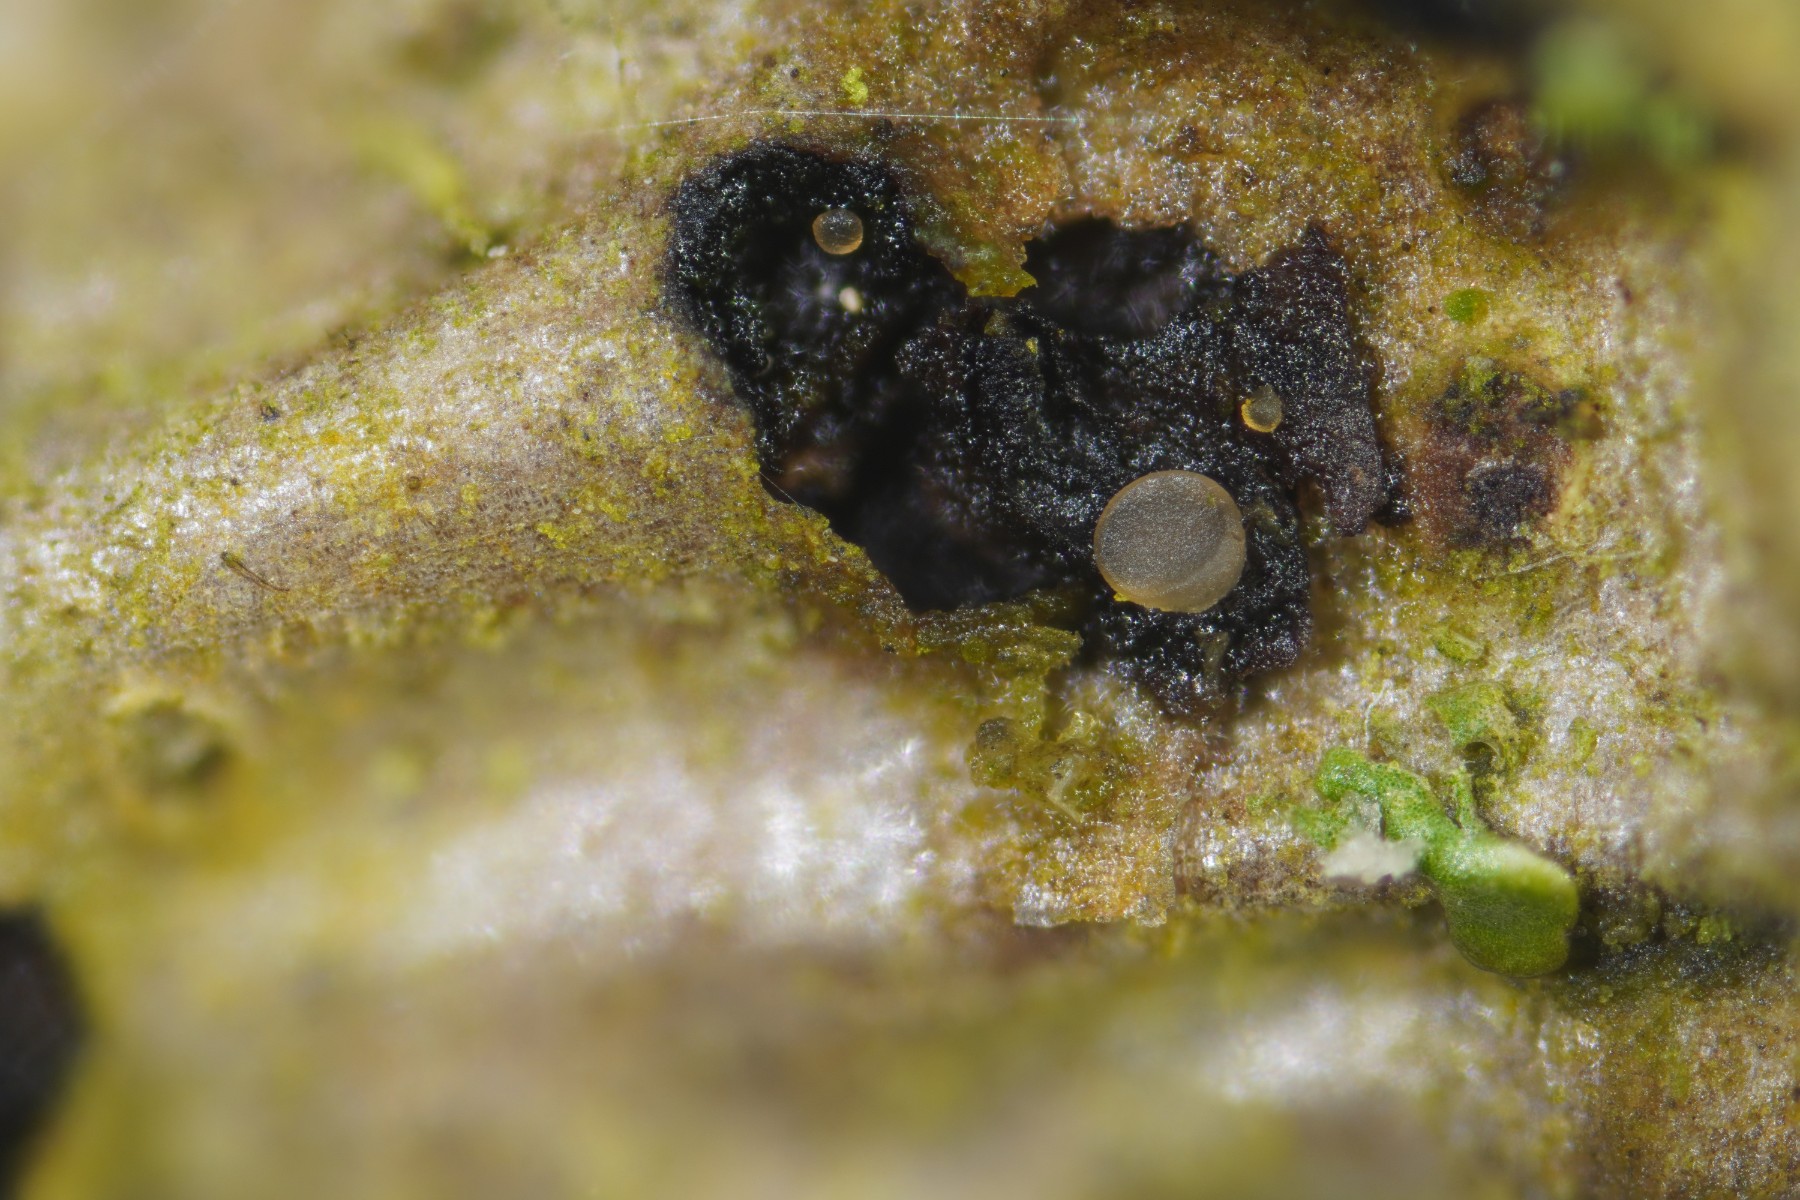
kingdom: Fungi
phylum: Ascomycota
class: Orbiliomycetes
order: Orbiliales
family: Orbiliaceae
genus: Orbilia
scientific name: Orbilia eucalypti
